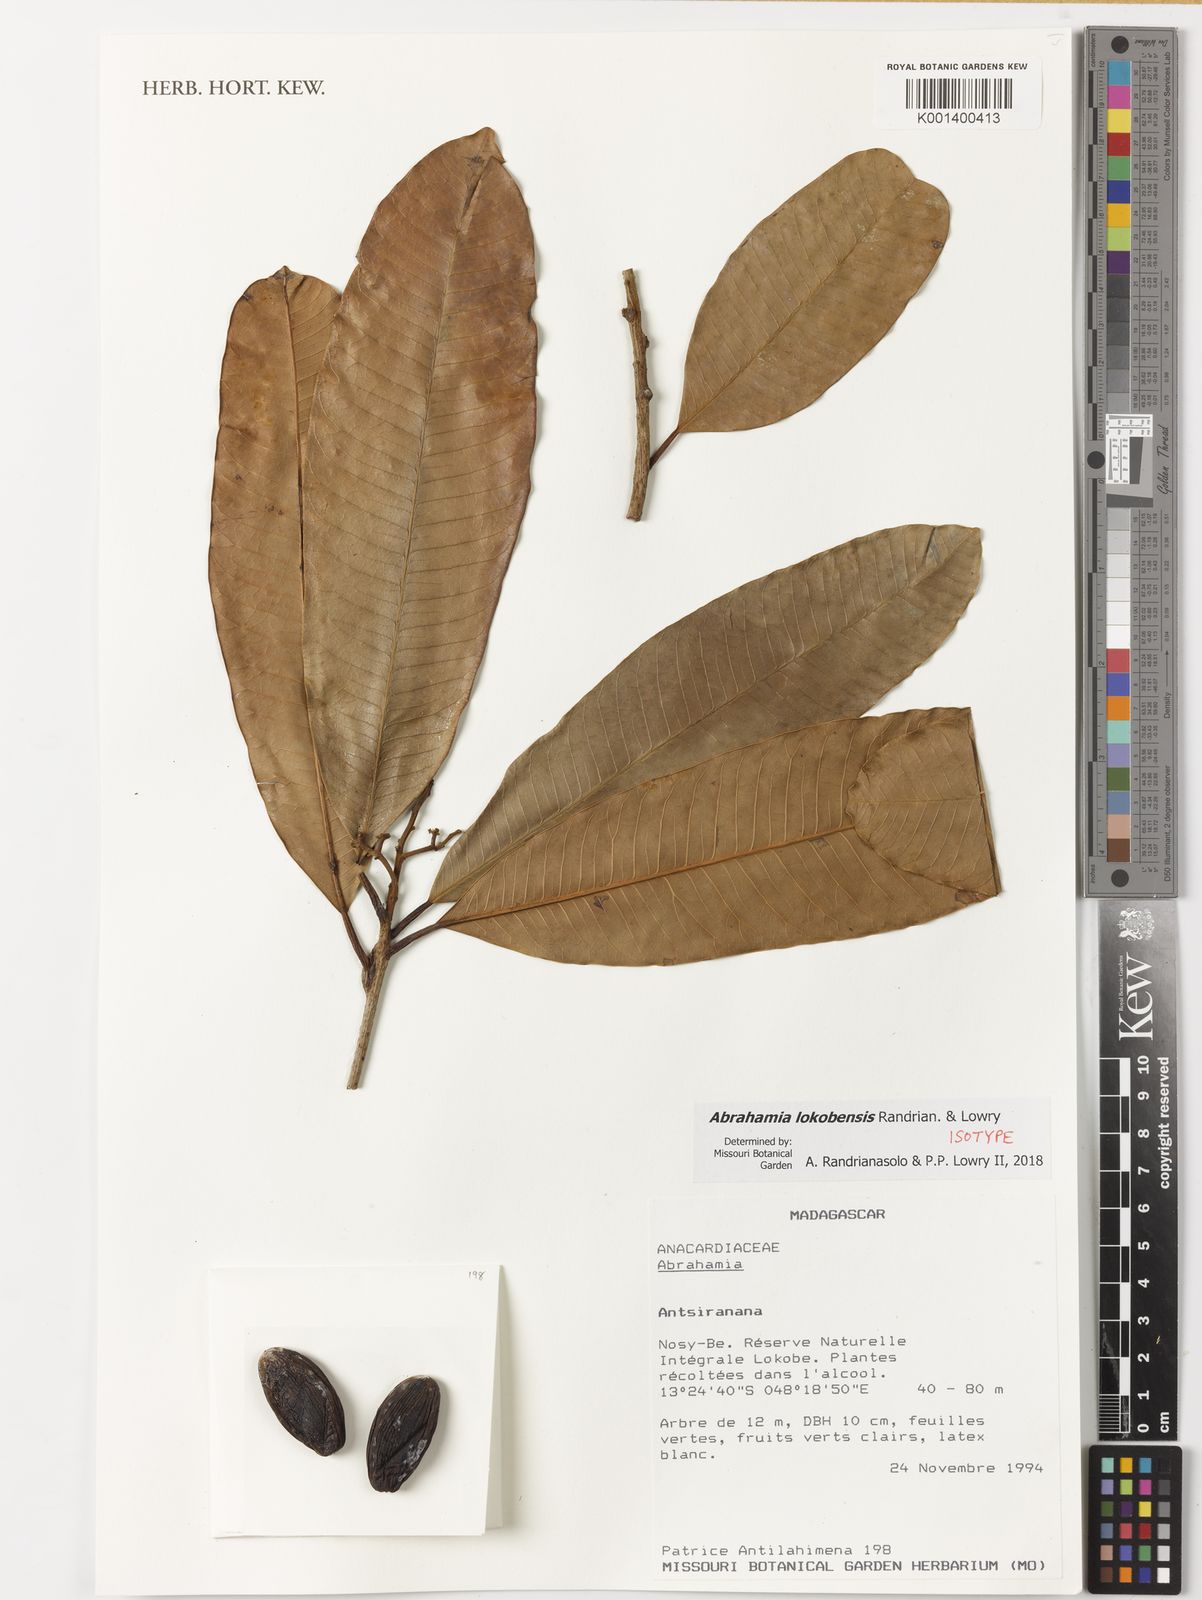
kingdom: Plantae
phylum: Tracheophyta
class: Magnoliopsida
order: Sapindales
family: Anacardiaceae
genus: Abrahamia
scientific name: Abrahamia
